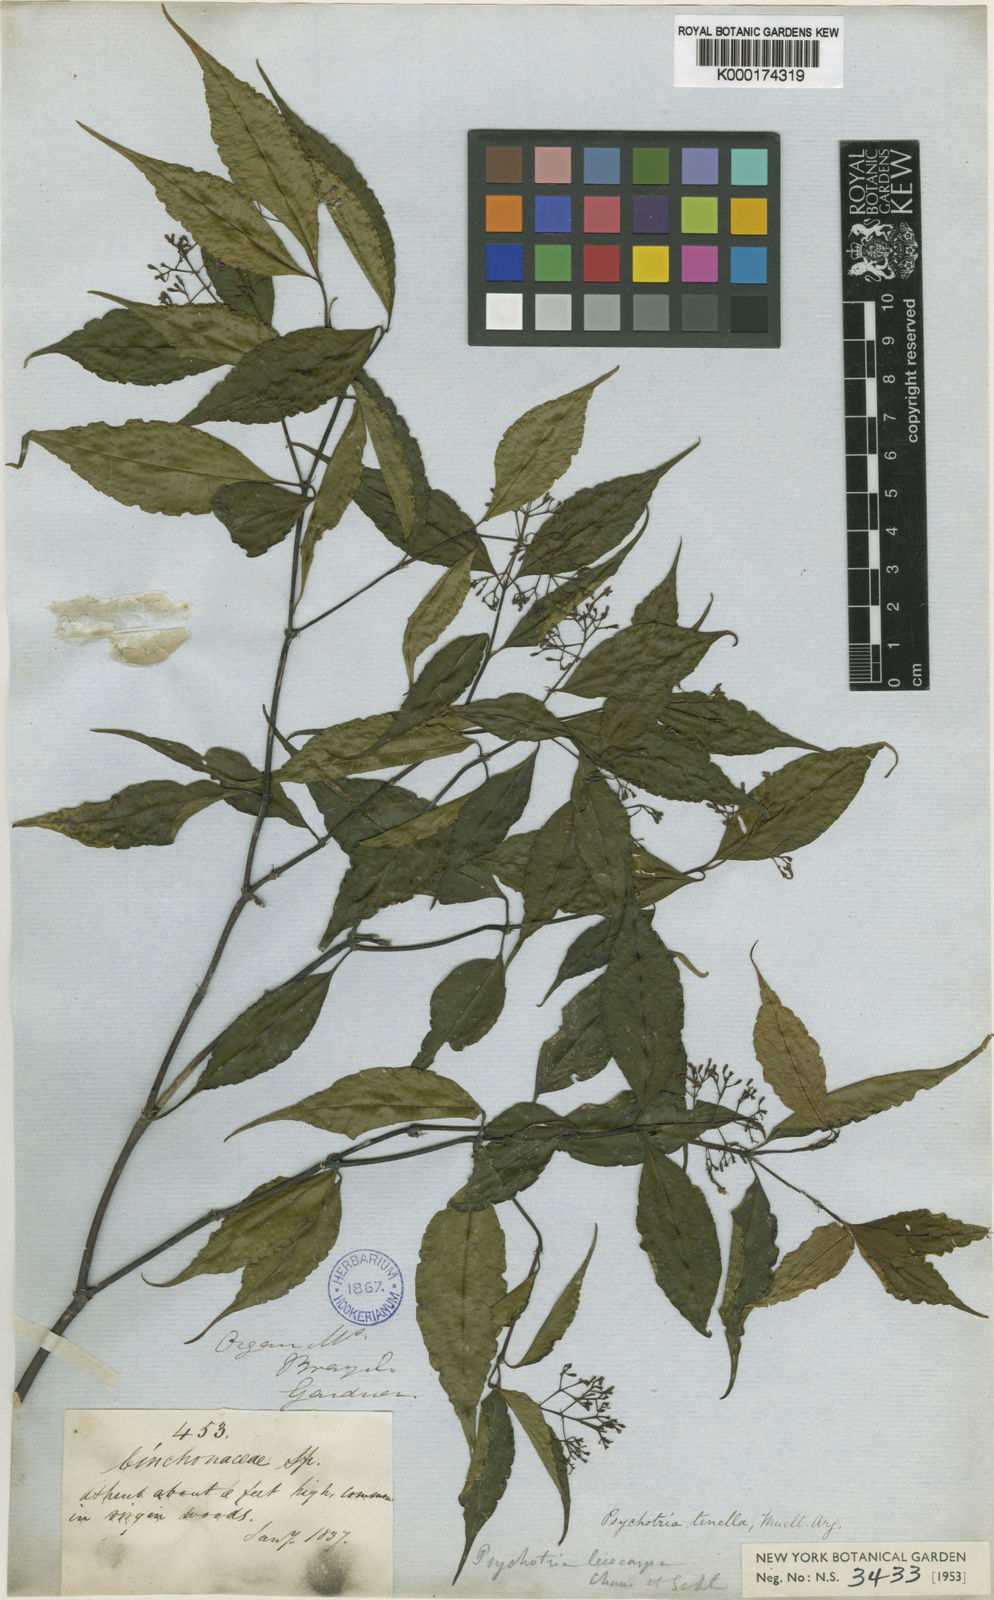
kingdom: Plantae
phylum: Tracheophyta
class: Magnoliopsida
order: Gentianales
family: Rubiaceae
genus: Psychotria
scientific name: Psychotria leiocarpa
